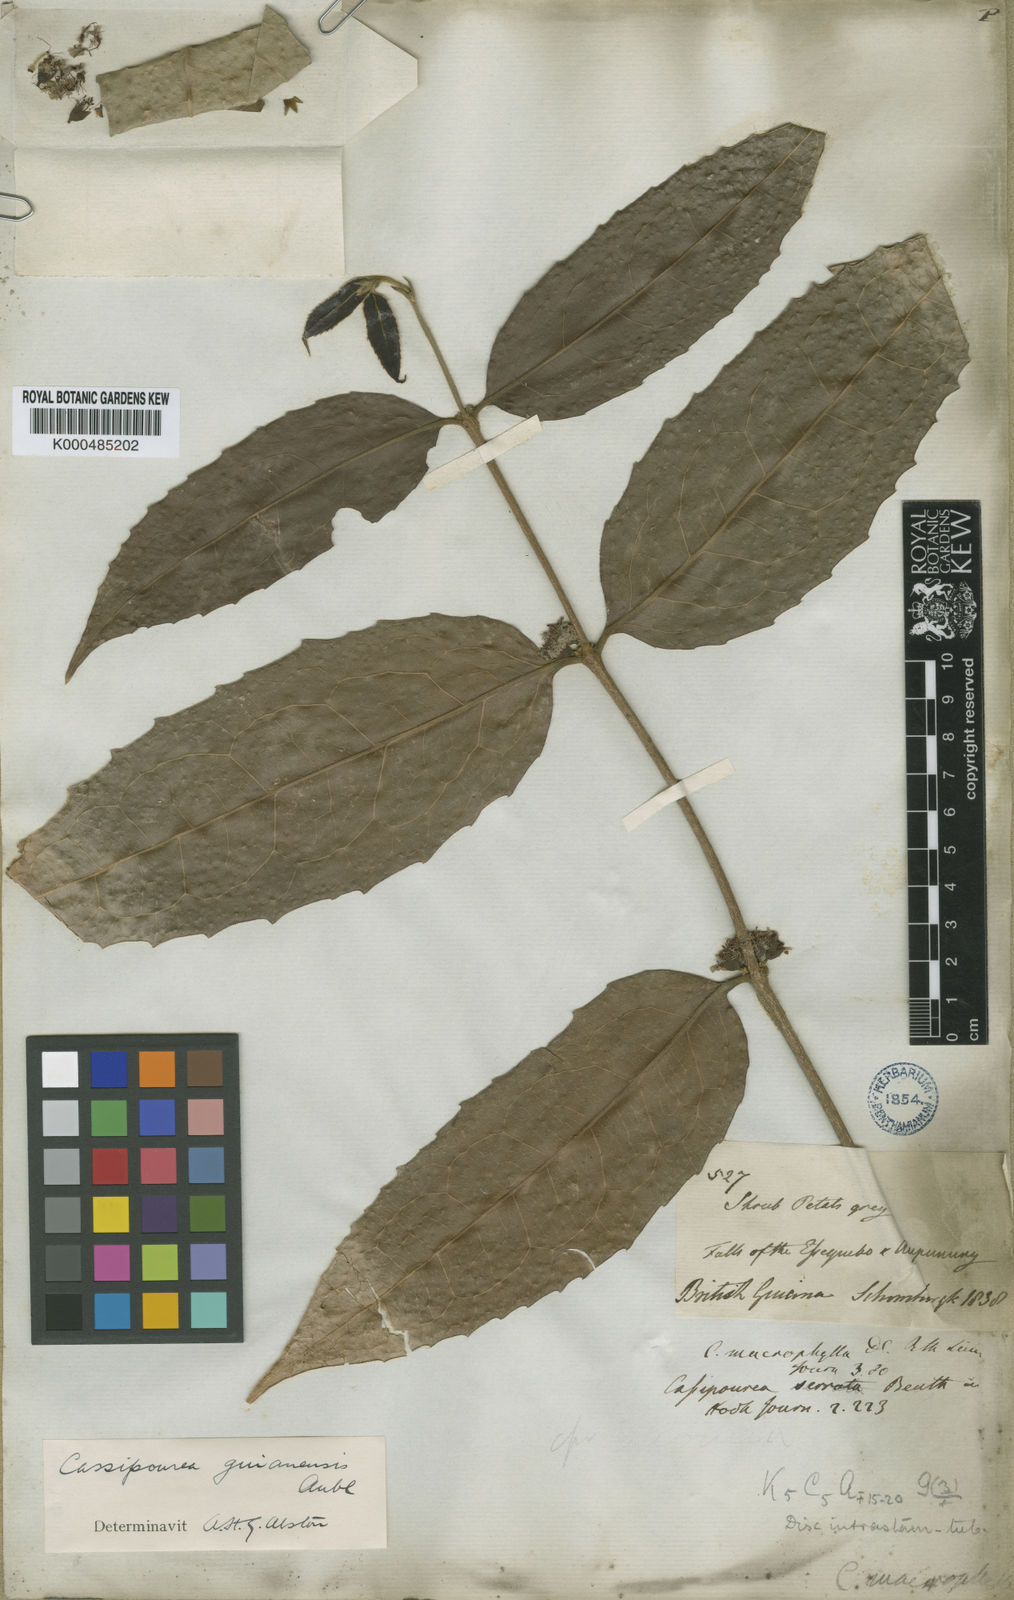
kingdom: Plantae
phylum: Tracheophyta
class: Magnoliopsida
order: Malpighiales
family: Rhizophoraceae
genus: Cassipourea
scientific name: Cassipourea guianensis
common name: Bastard waterwood
